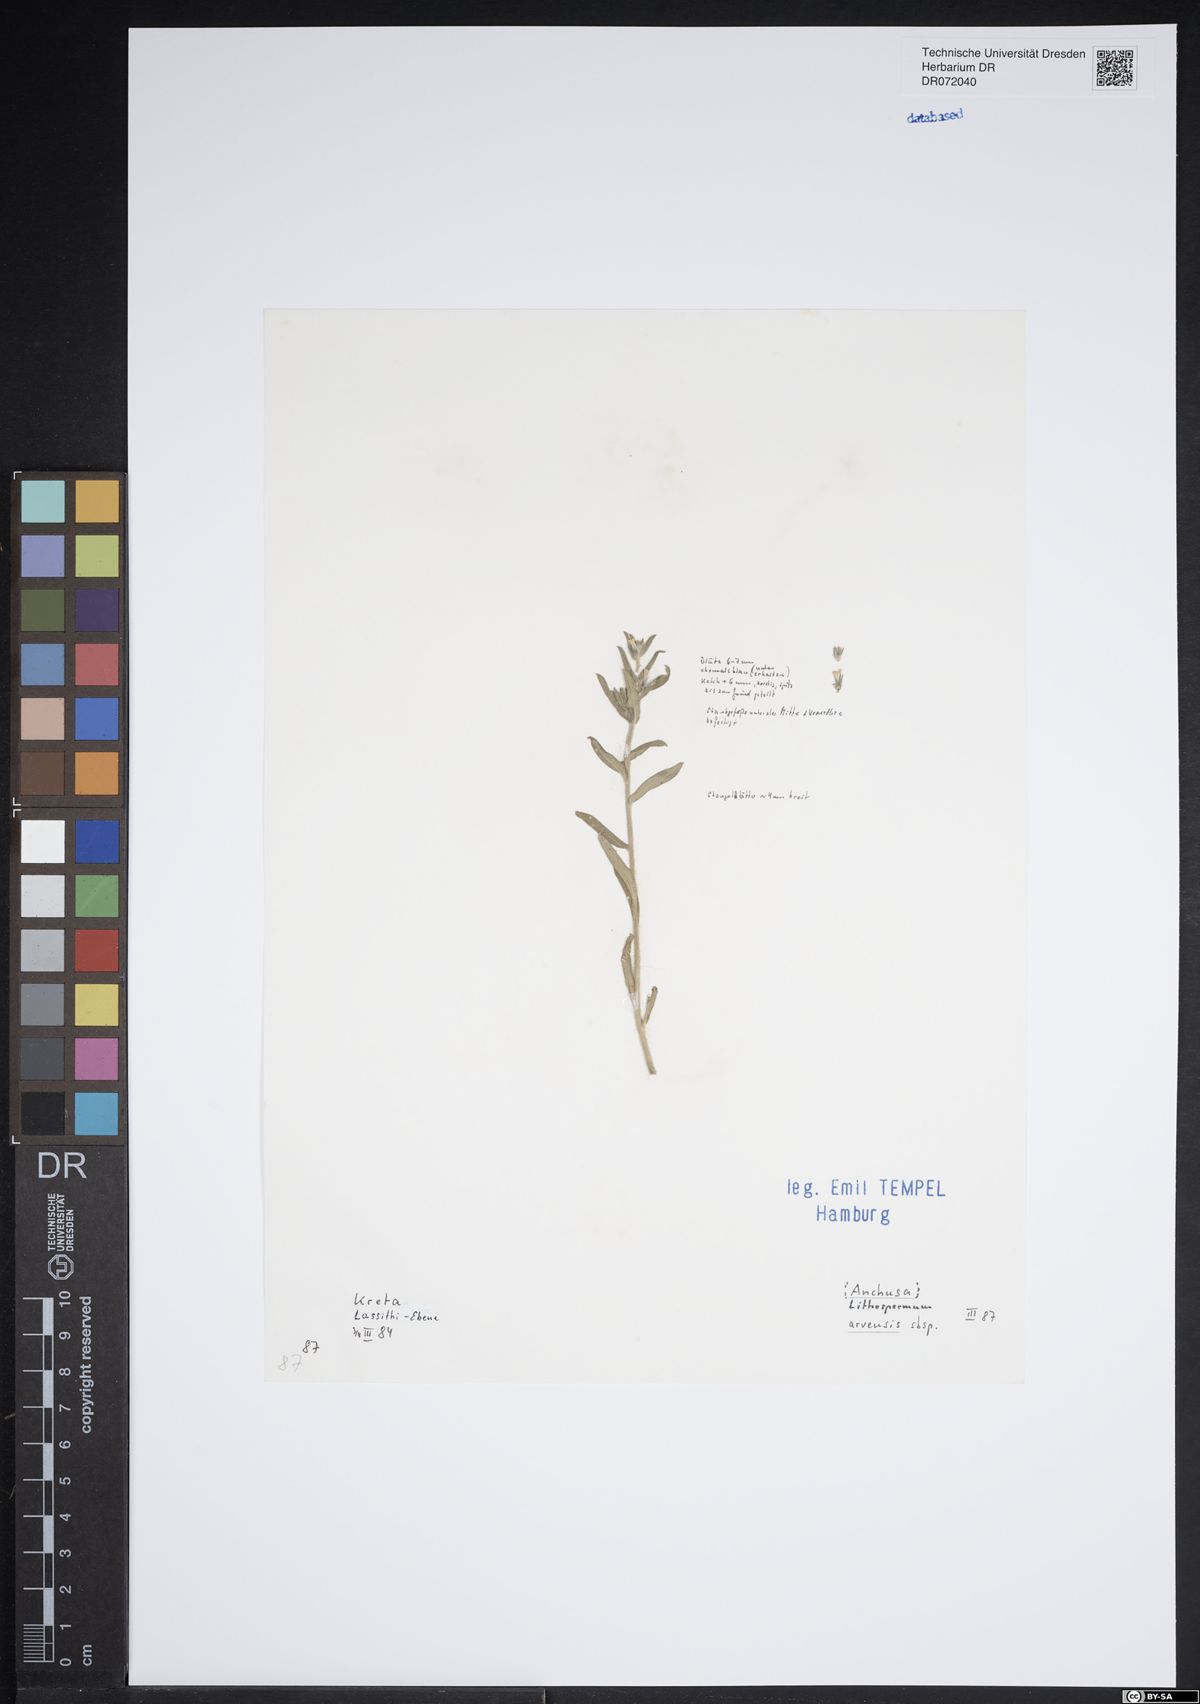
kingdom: Plantae
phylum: Tracheophyta
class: Magnoliopsida
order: Boraginales
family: Boraginaceae
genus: Lycopsis
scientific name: Lycopsis arvensis
